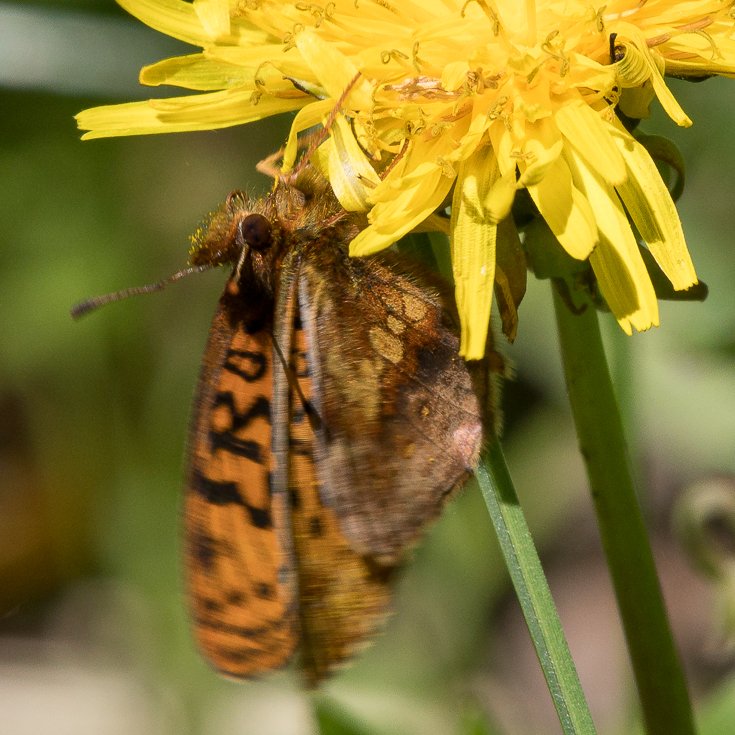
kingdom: Animalia
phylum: Arthropoda
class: Insecta
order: Lepidoptera
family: Nymphalidae
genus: Boloria
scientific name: Boloria epithore
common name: Pacific Fritillary
